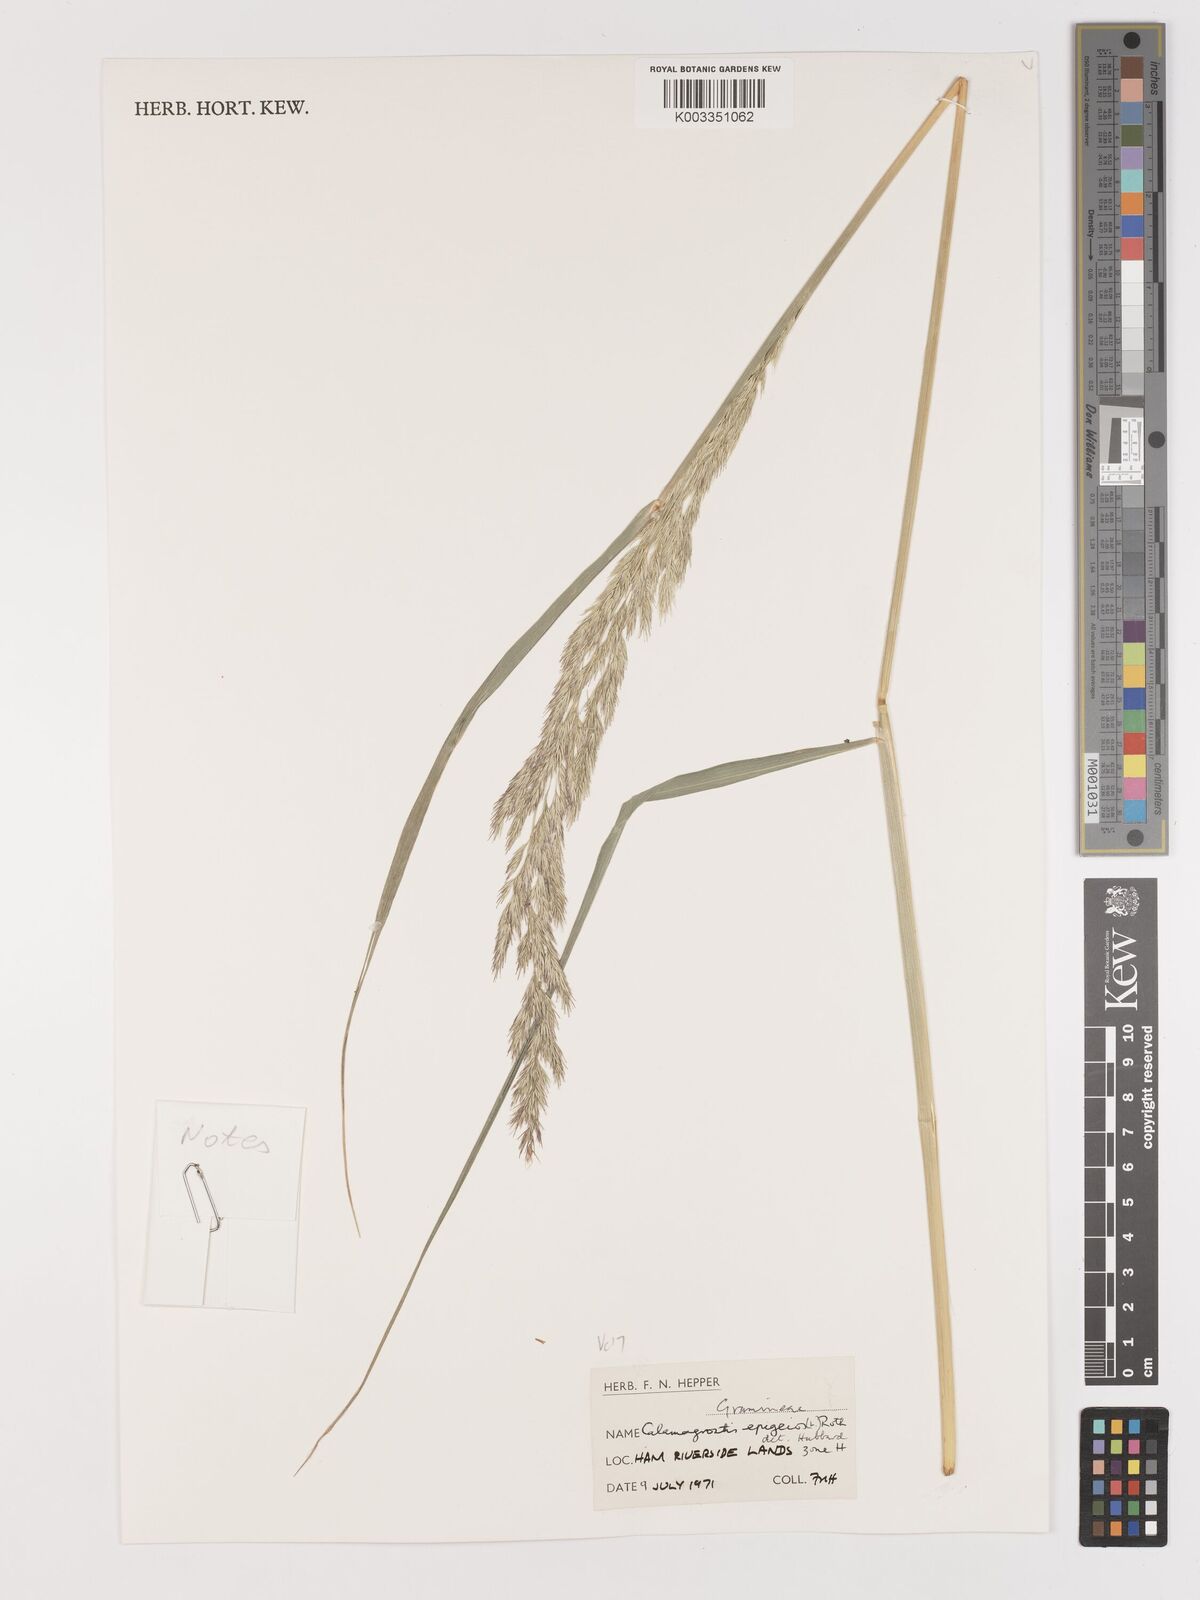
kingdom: Plantae
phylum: Tracheophyta
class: Liliopsida
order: Poales
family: Poaceae
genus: Calamagrostis
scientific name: Calamagrostis epigejos
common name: Wood small-reed
